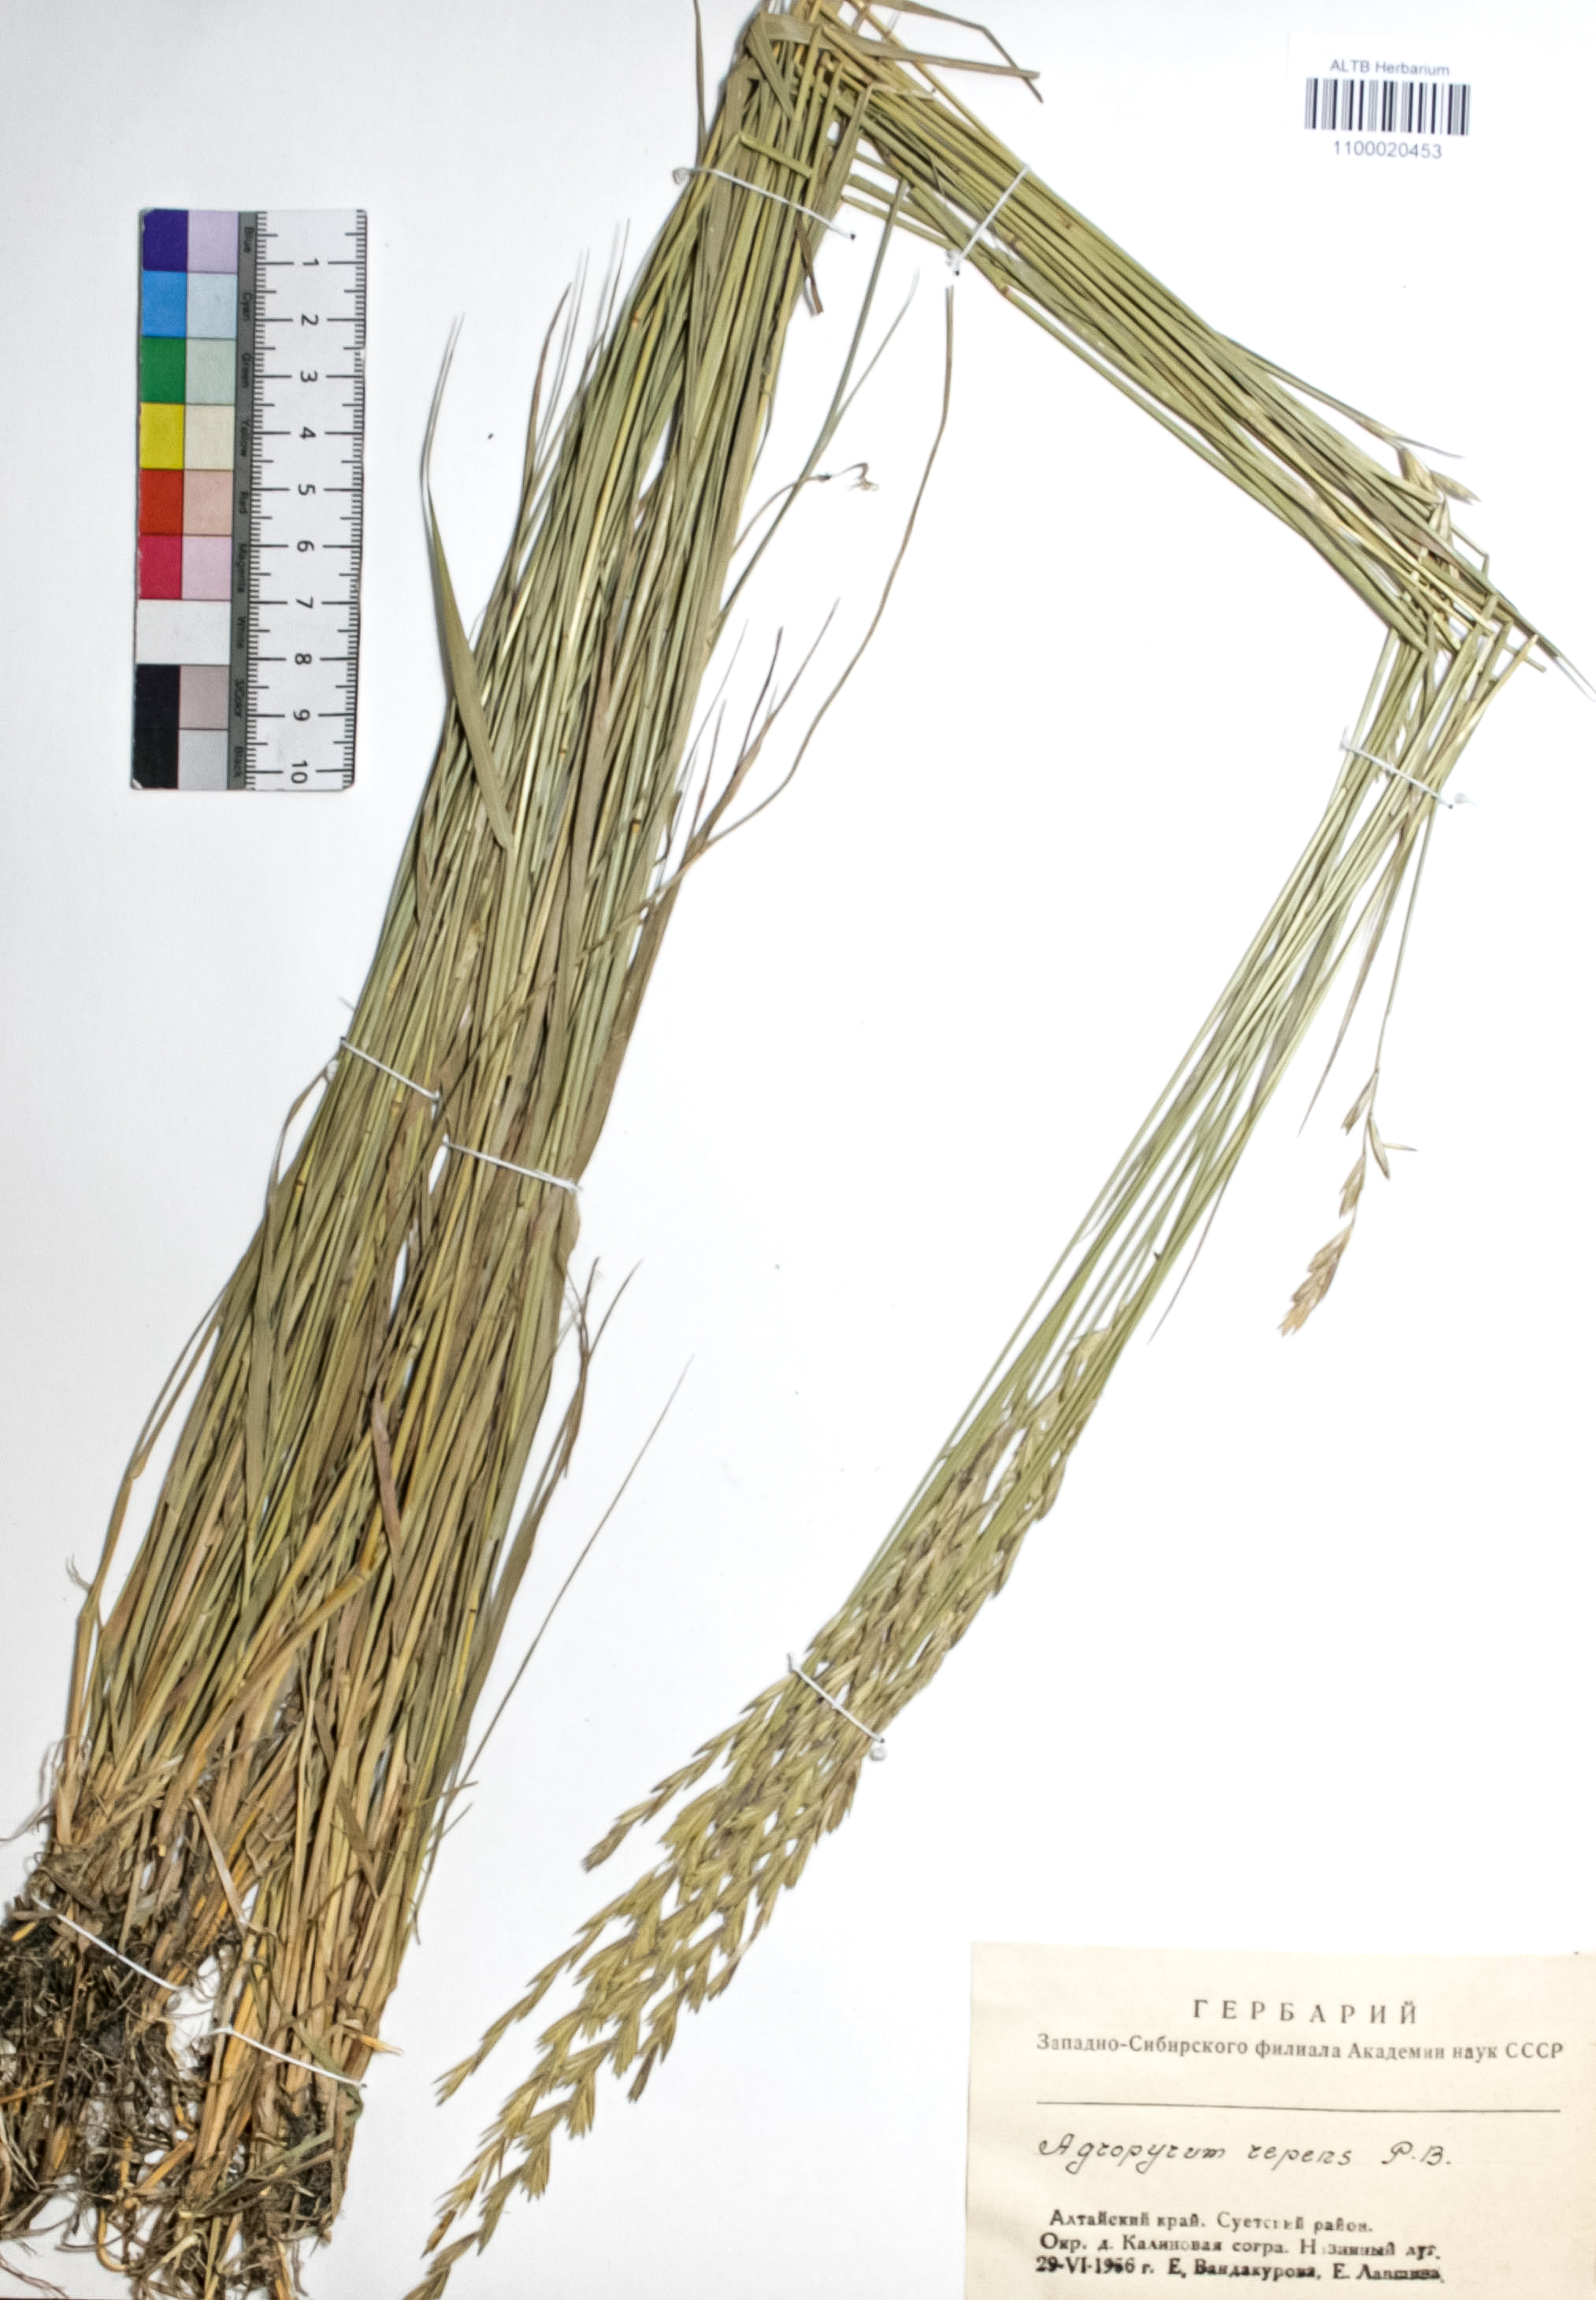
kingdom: Plantae
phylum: Tracheophyta
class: Liliopsida
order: Poales
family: Poaceae
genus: Elymus
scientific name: Elymus repens
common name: Quackgrass
